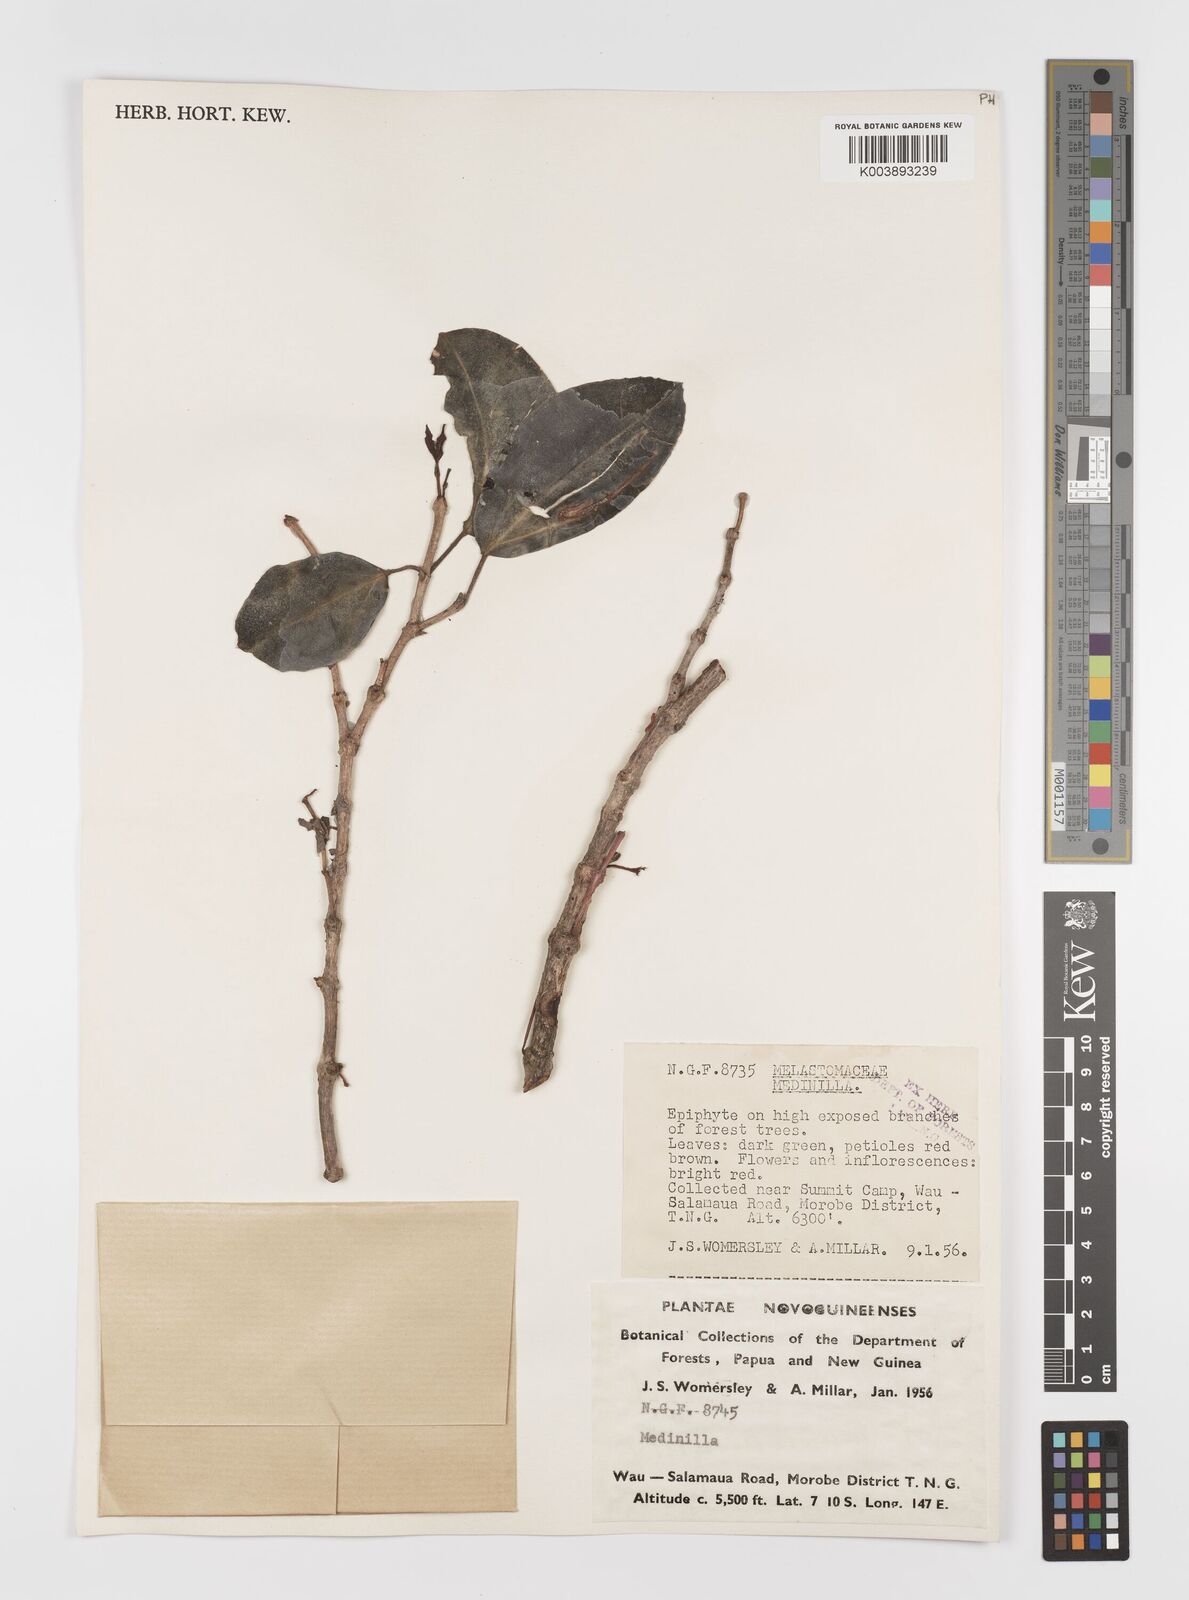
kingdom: Plantae
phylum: Tracheophyta
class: Magnoliopsida
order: Myrtales
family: Melastomataceae
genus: Medinilla
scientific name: Medinilla
